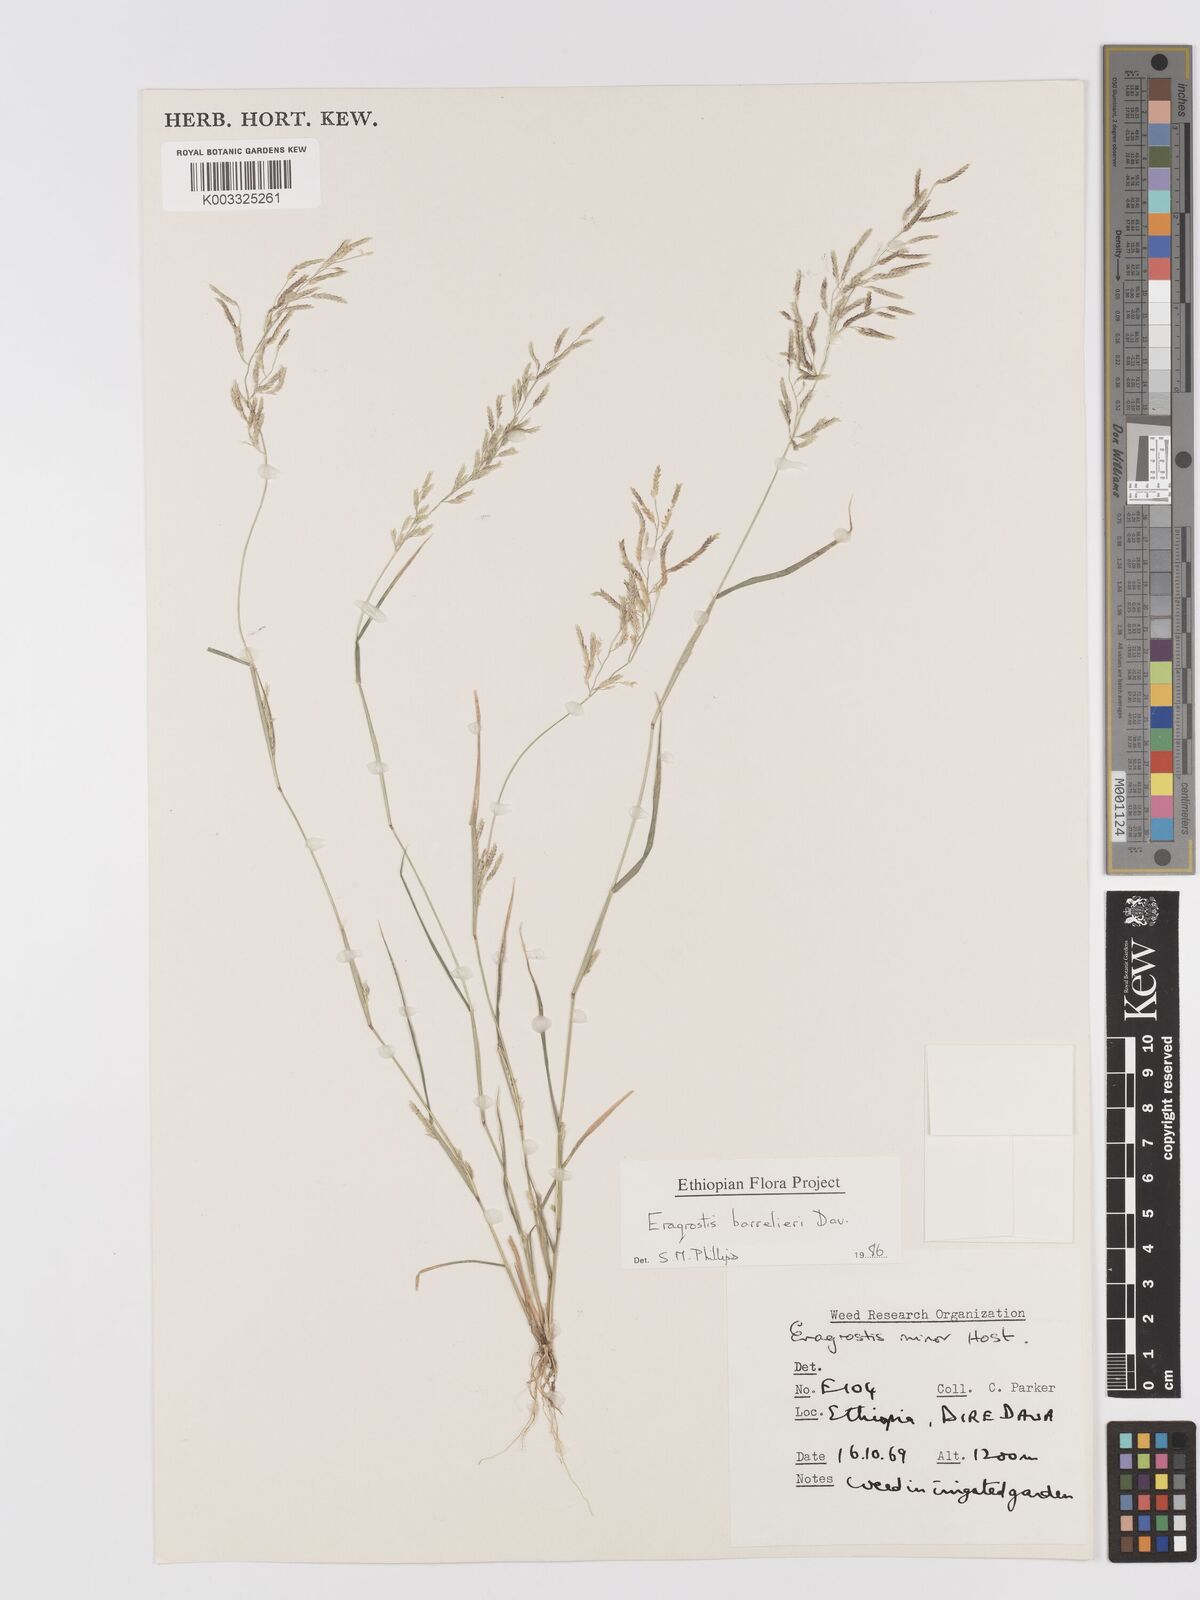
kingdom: Plantae
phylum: Tracheophyta
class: Liliopsida
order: Poales
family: Poaceae
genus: Eragrostis
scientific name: Eragrostis barrelieri
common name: Mediterranean lovegrass
